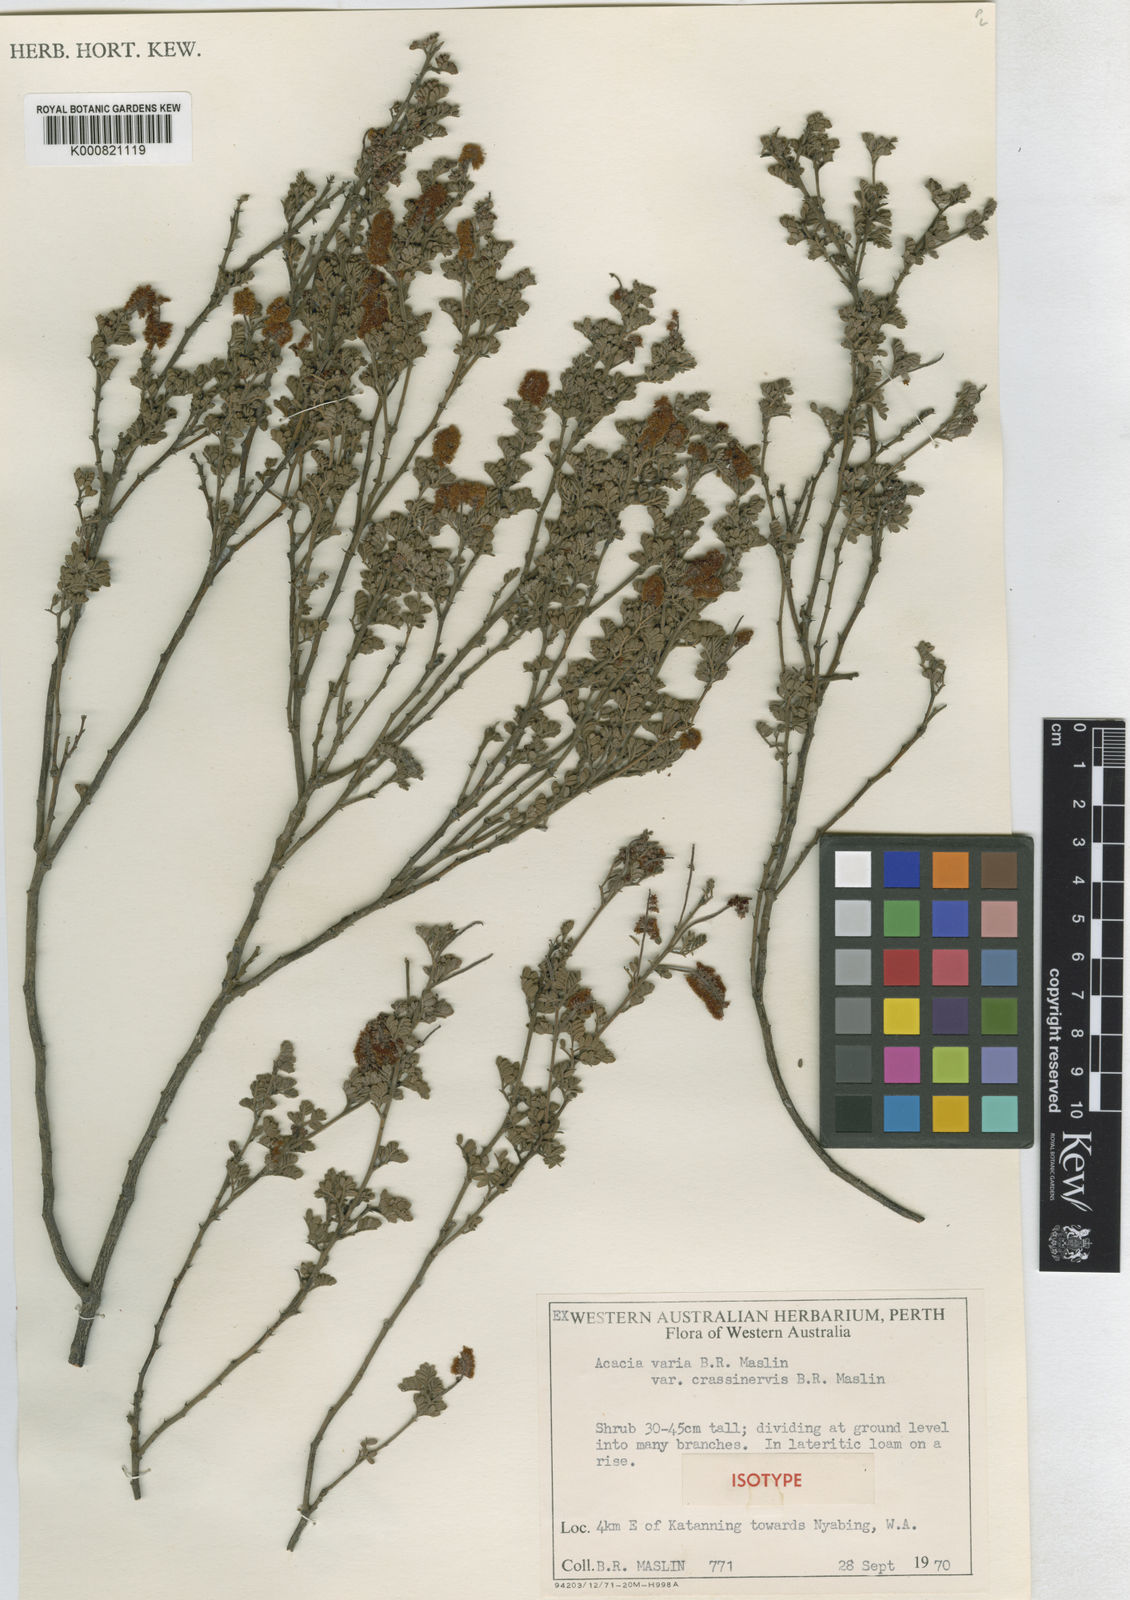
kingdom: Plantae
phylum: Tracheophyta
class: Magnoliopsida
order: Fabales
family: Fabaceae
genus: Acacia
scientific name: Acacia varia
